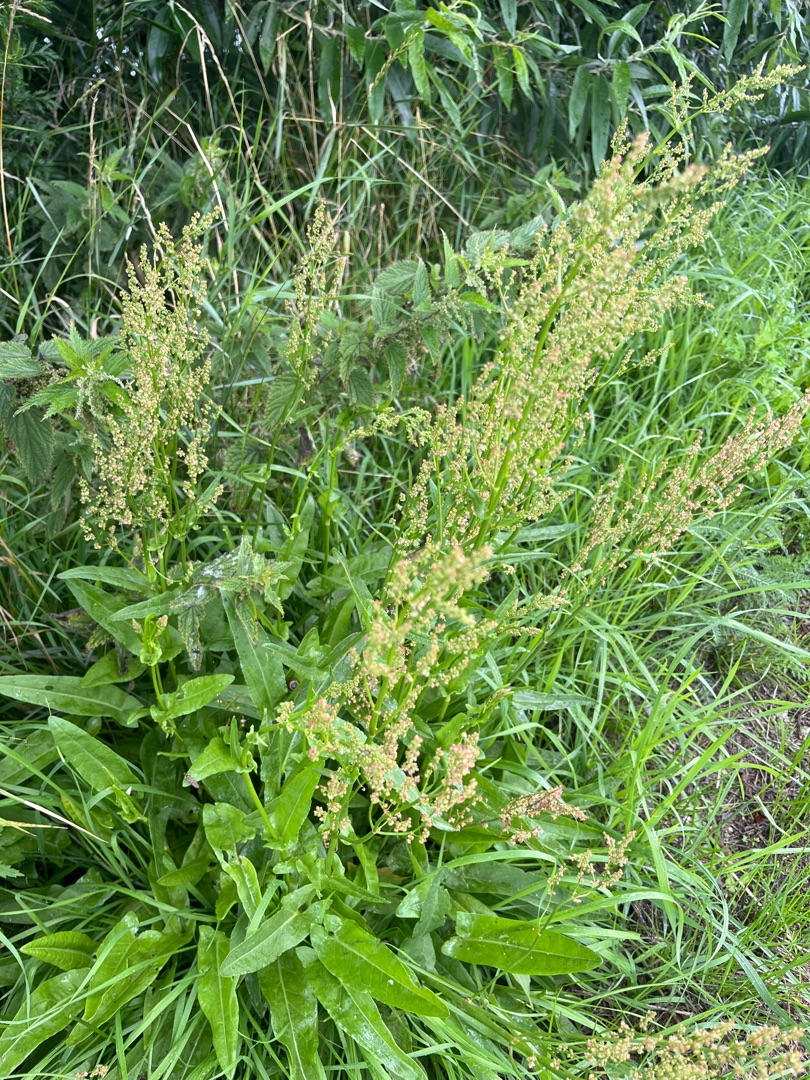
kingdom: Plantae
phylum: Tracheophyta
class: Magnoliopsida
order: Caryophyllales
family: Polygonaceae
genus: Rumex
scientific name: Rumex thyrsiflorus
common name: Dusk-syre
